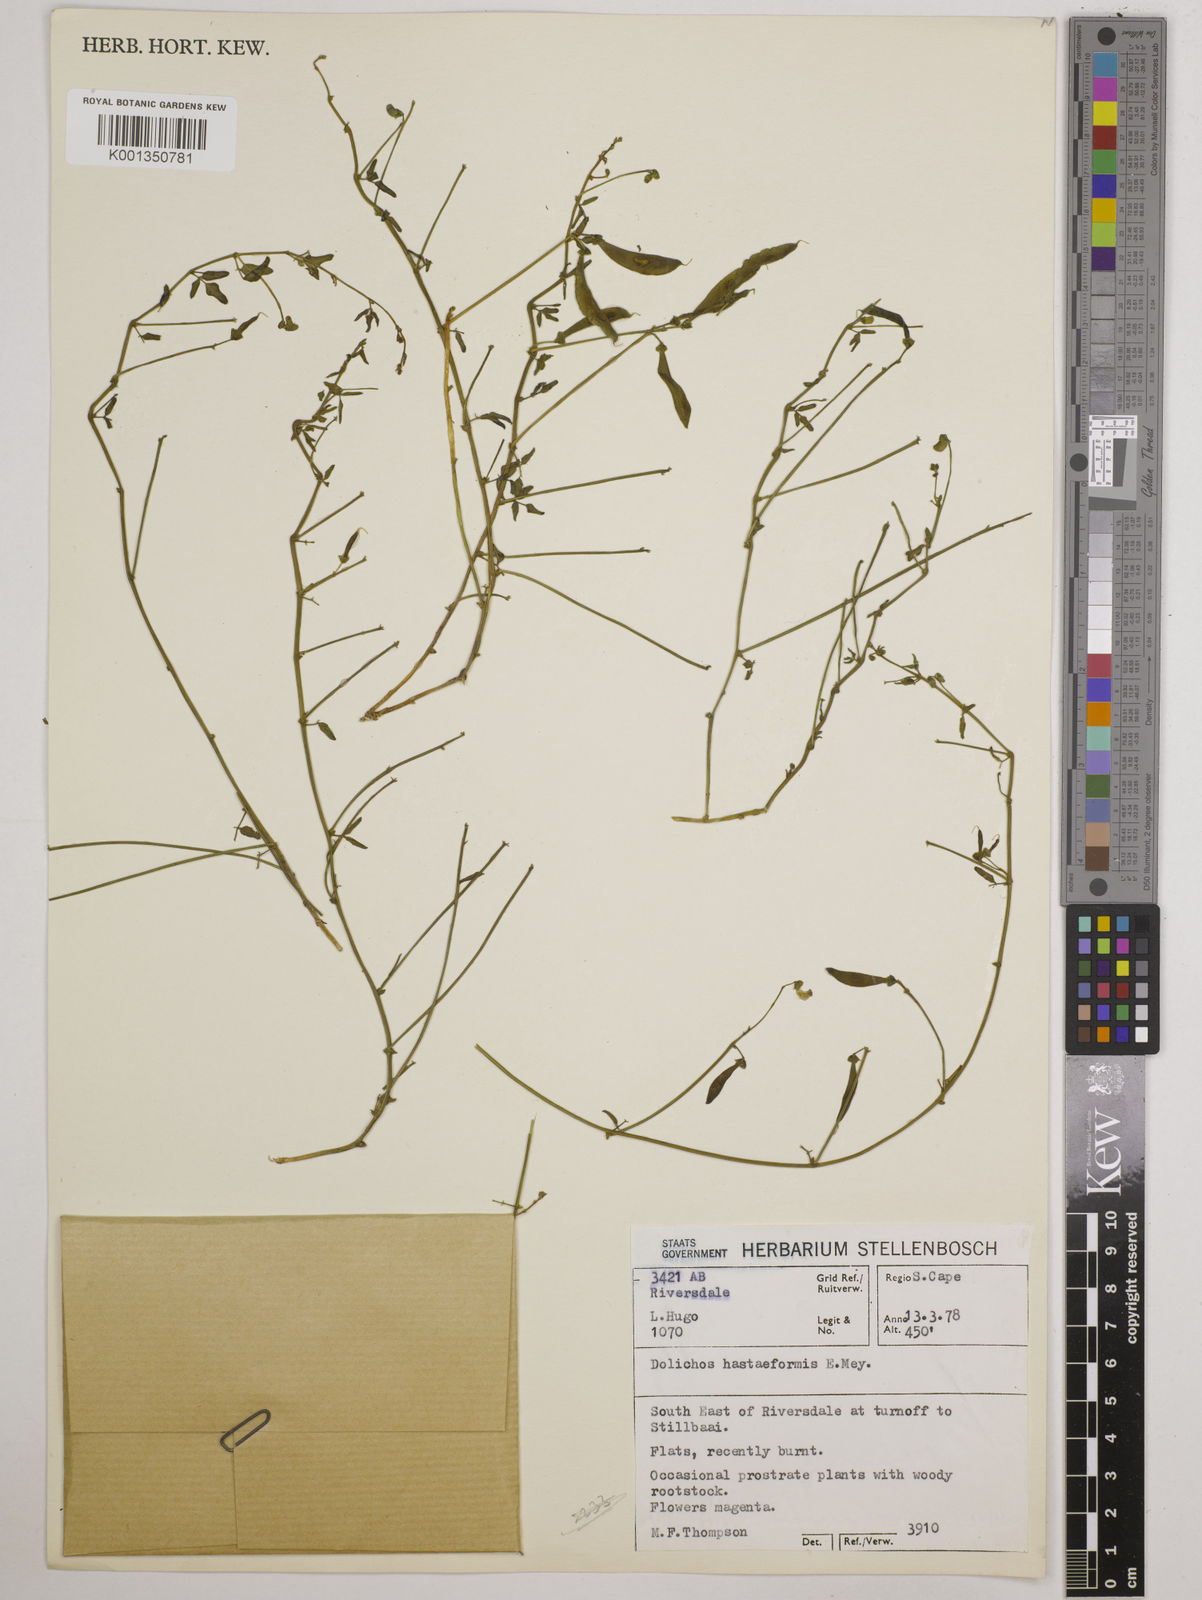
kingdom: Plantae
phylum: Tracheophyta
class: Magnoliopsida
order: Fabales
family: Fabaceae
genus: Dolichos
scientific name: Dolichos
